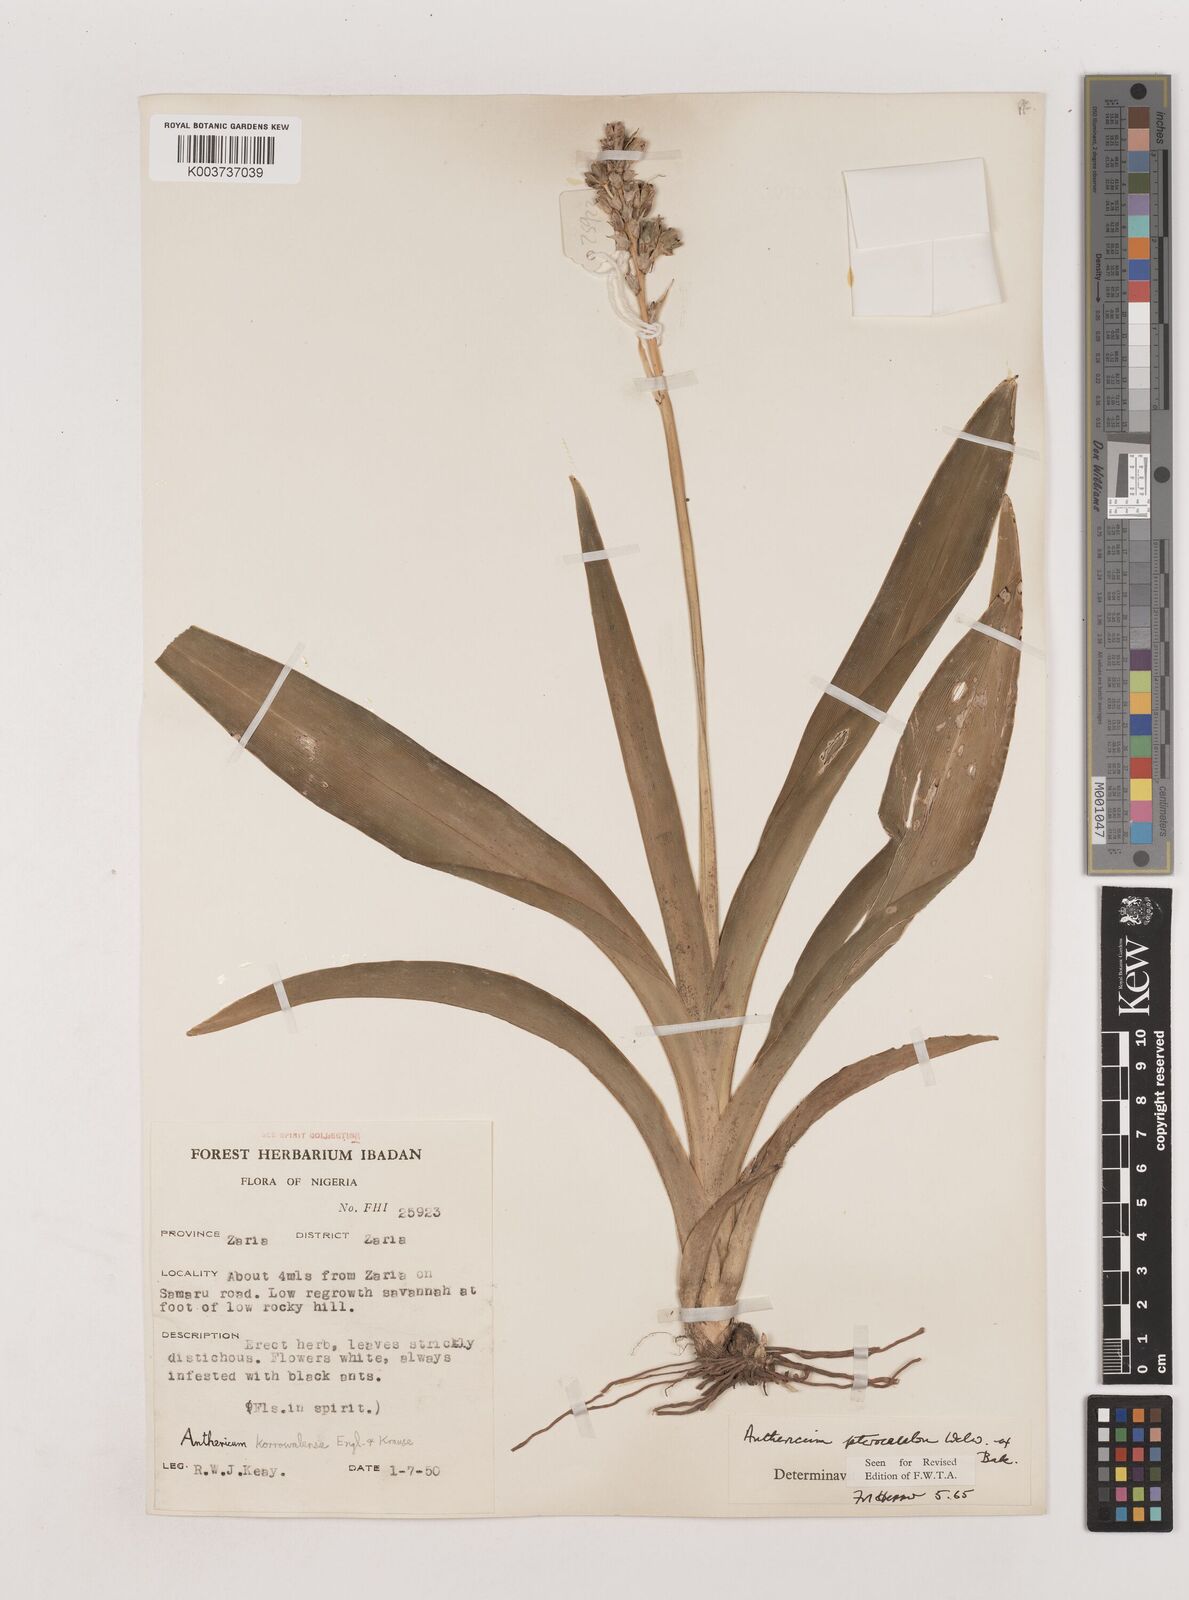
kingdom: Plantae
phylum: Tracheophyta
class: Liliopsida
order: Asparagales
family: Asparagaceae
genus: Chlorophytum
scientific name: Chlorophytum cameronii
